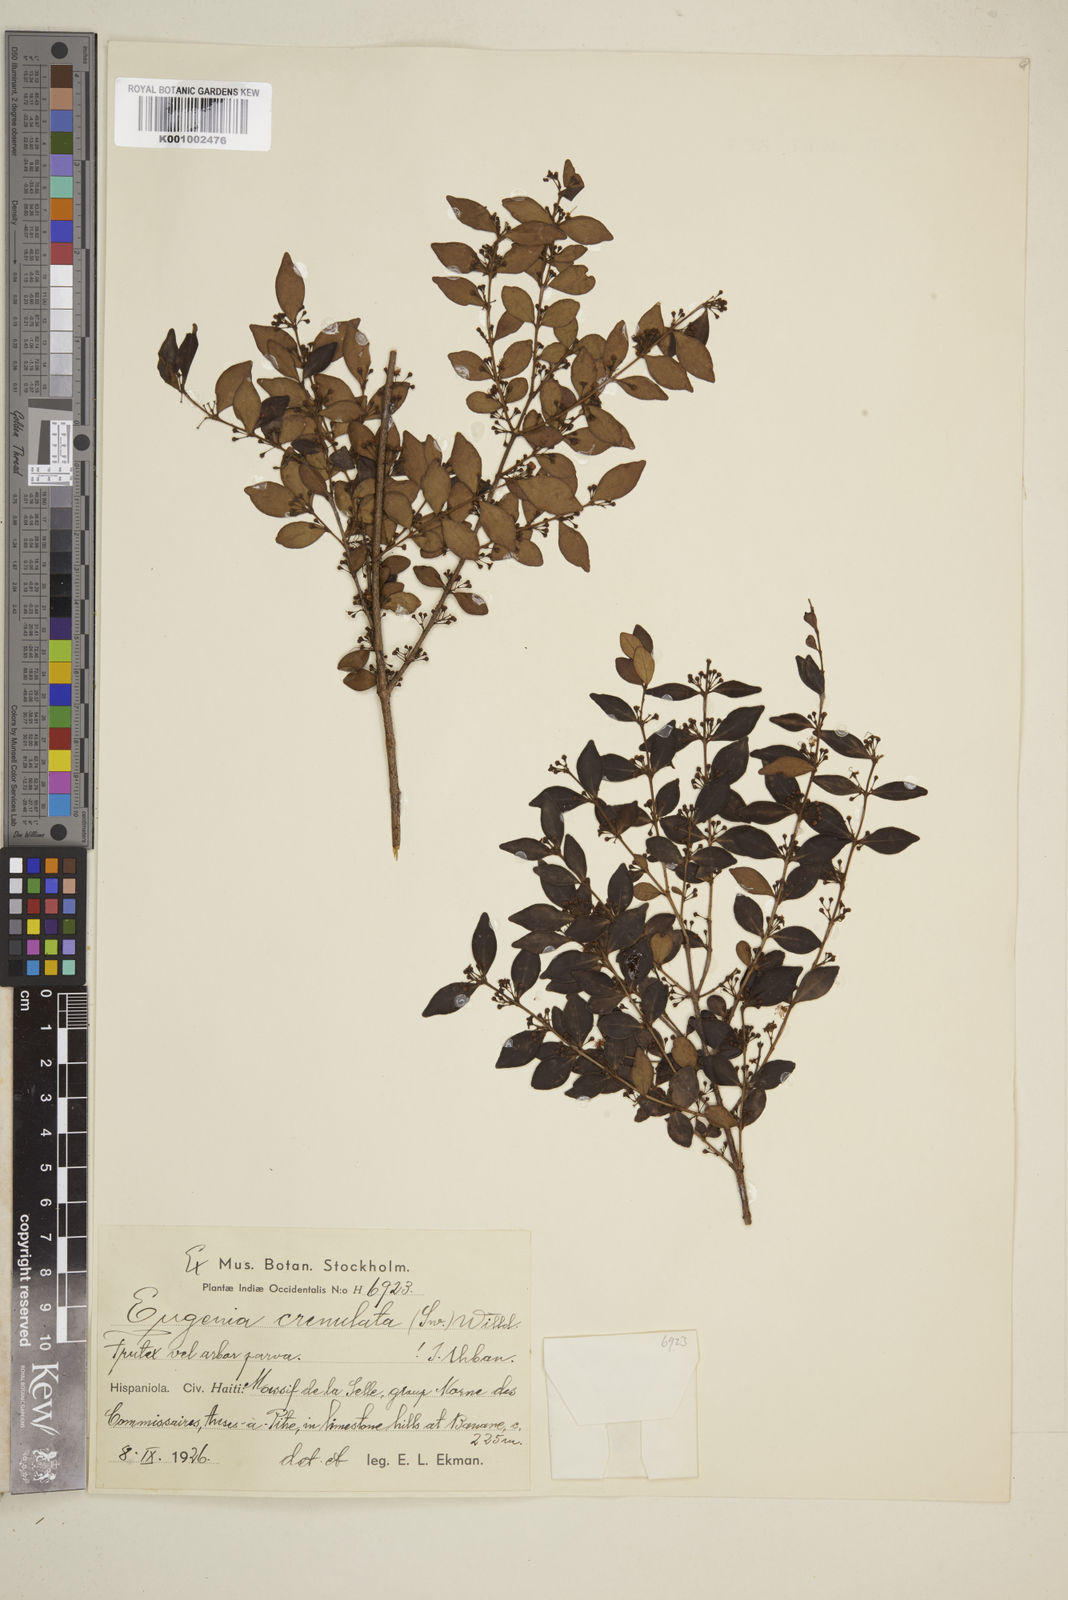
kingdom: Plantae
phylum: Tracheophyta
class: Magnoliopsida
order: Myrtales
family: Myrtaceae
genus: Eugenia
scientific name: Eugenia crenulata
